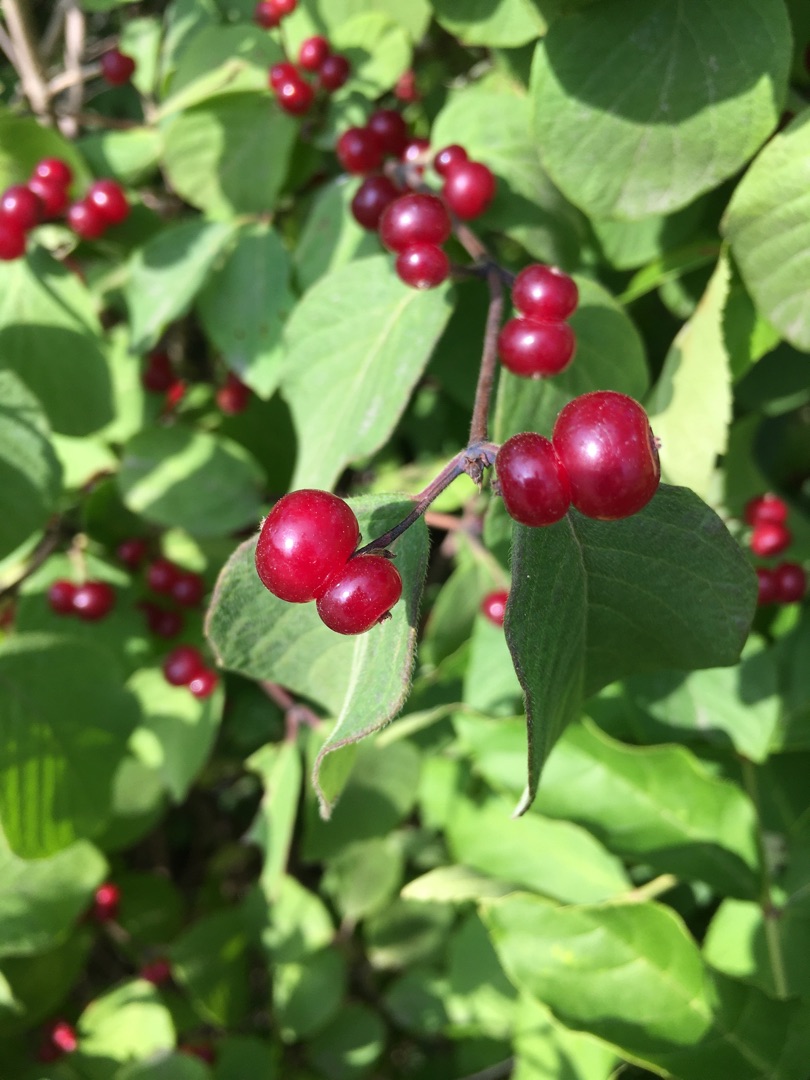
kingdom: Plantae
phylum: Tracheophyta
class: Magnoliopsida
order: Dipsacales
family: Caprifoliaceae
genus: Lonicera
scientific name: Lonicera xylosteum
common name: Dunet gedeblad
